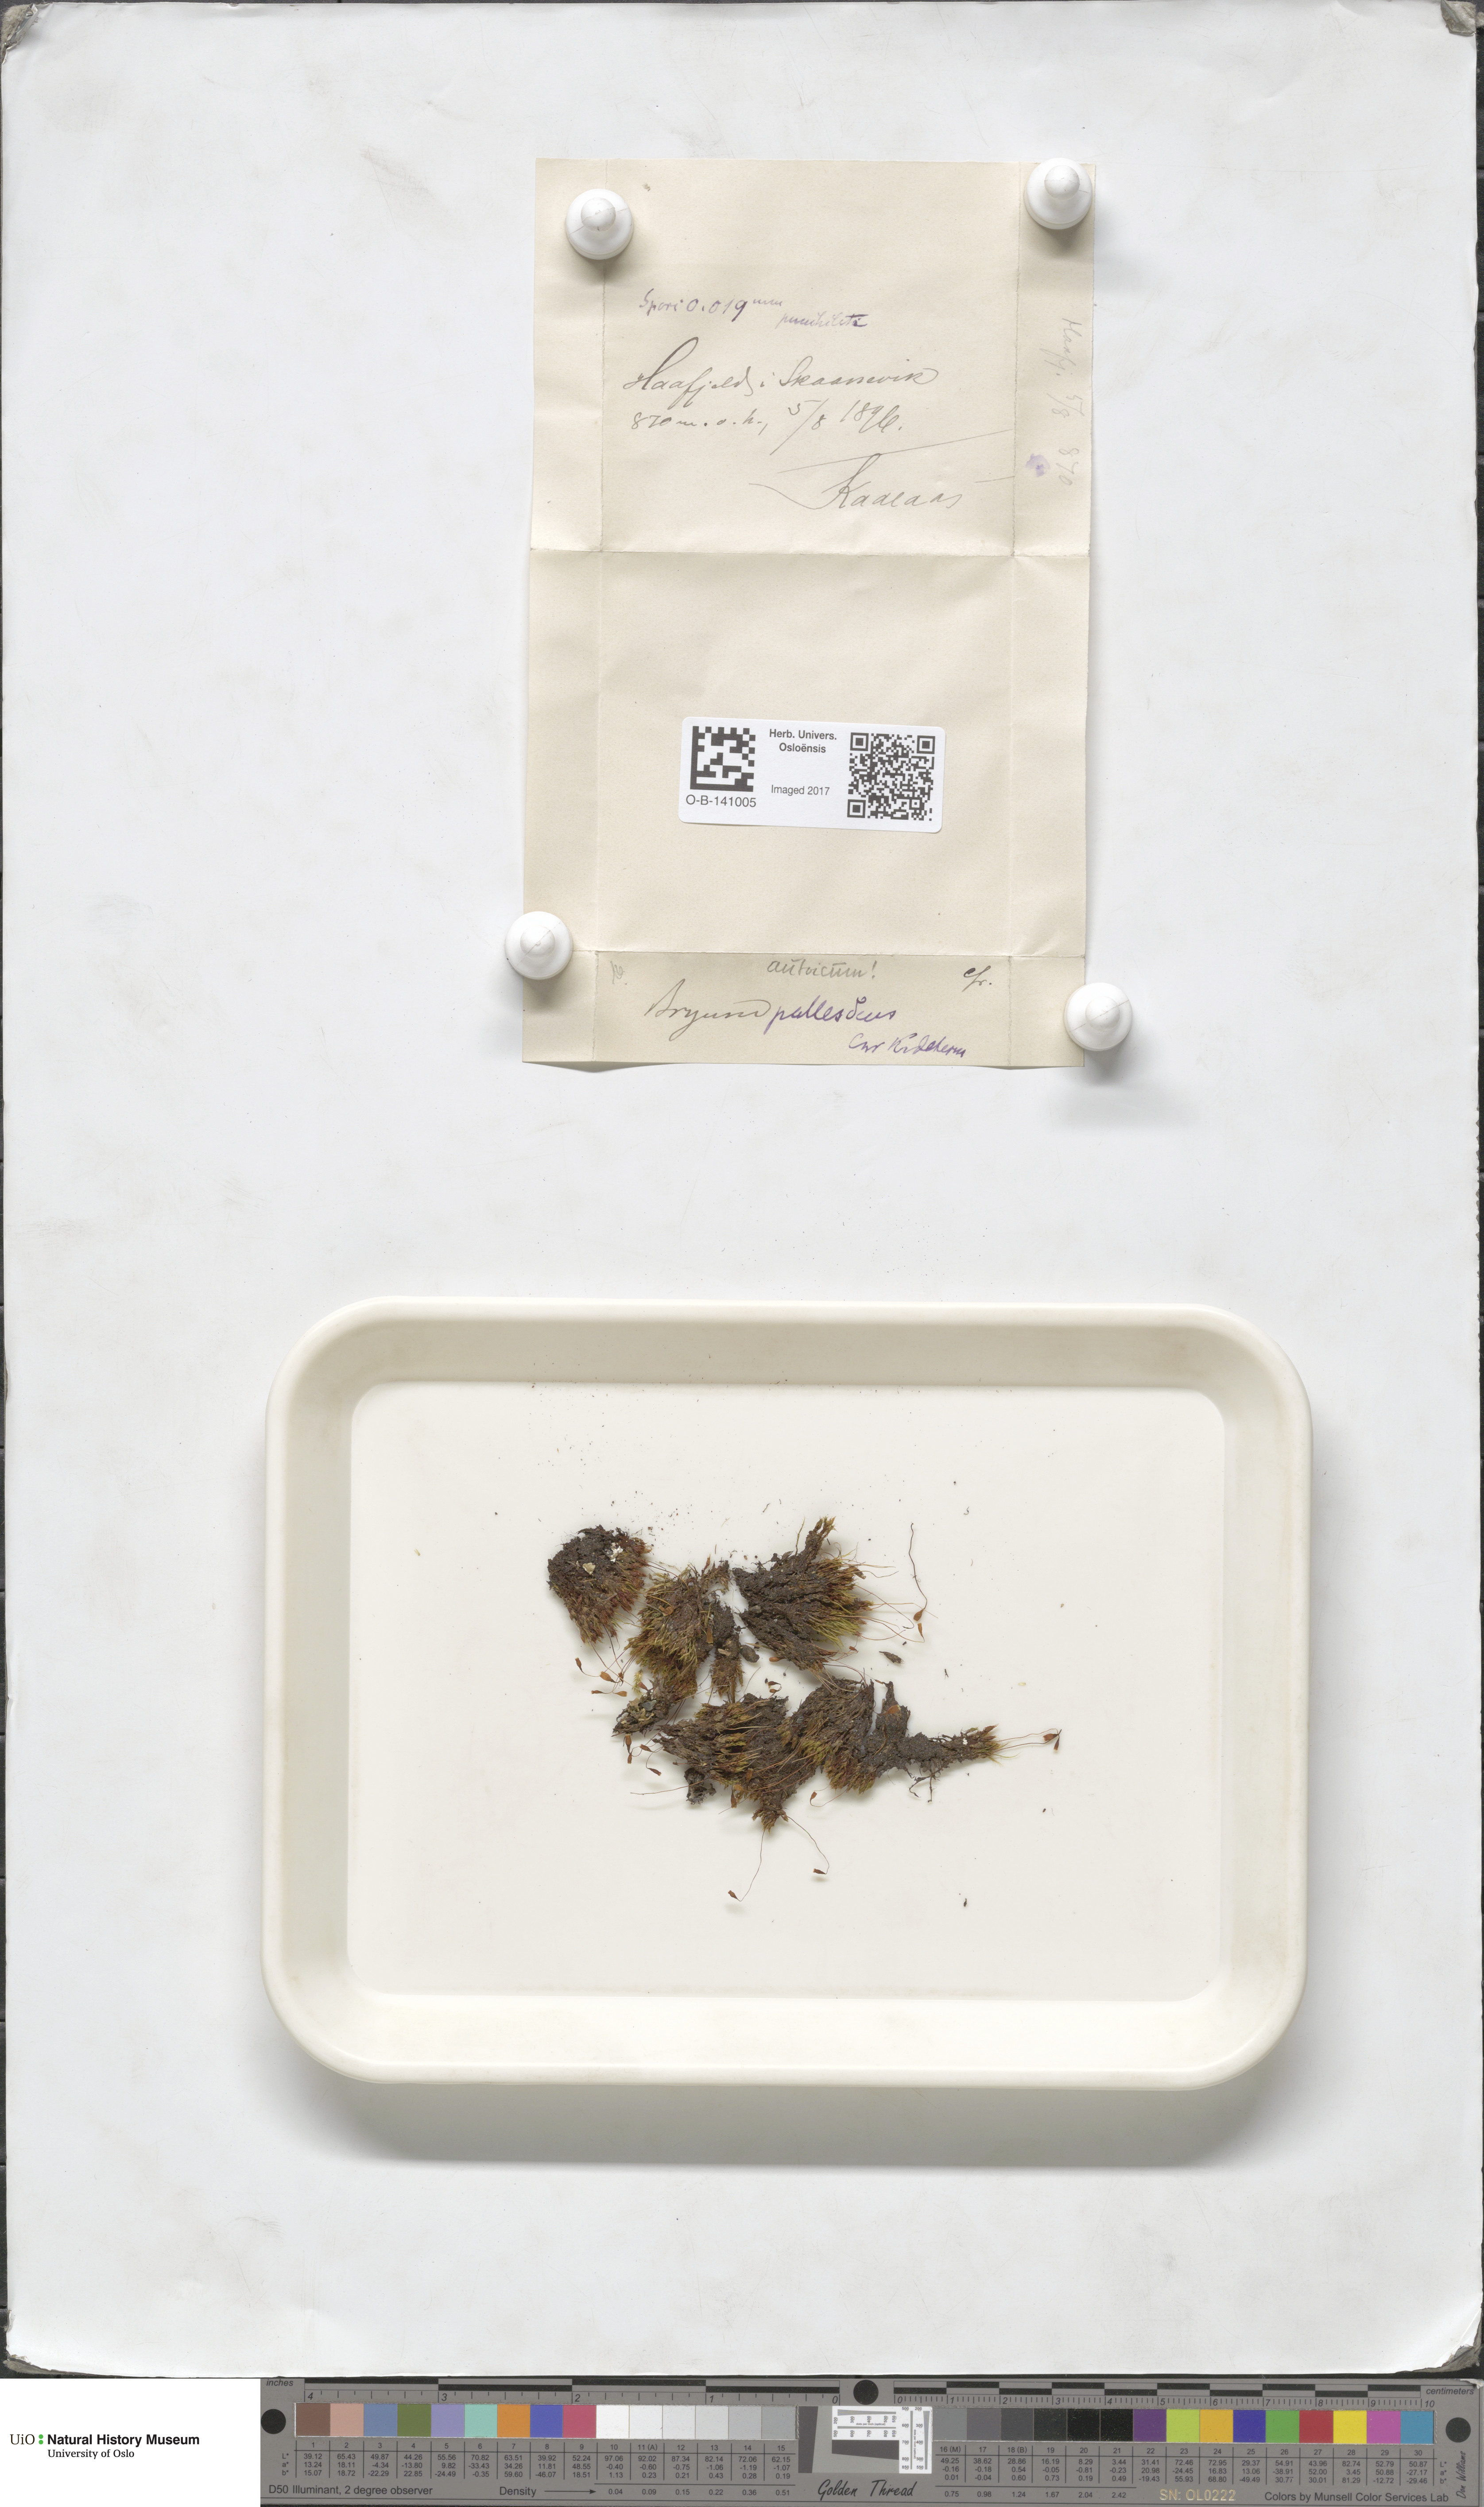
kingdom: Plantae
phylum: Bryophyta
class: Bryopsida
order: Bryales
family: Bryaceae
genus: Ptychostomum
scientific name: Ptychostomum pallescens
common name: Tall-clustered thread-moss
